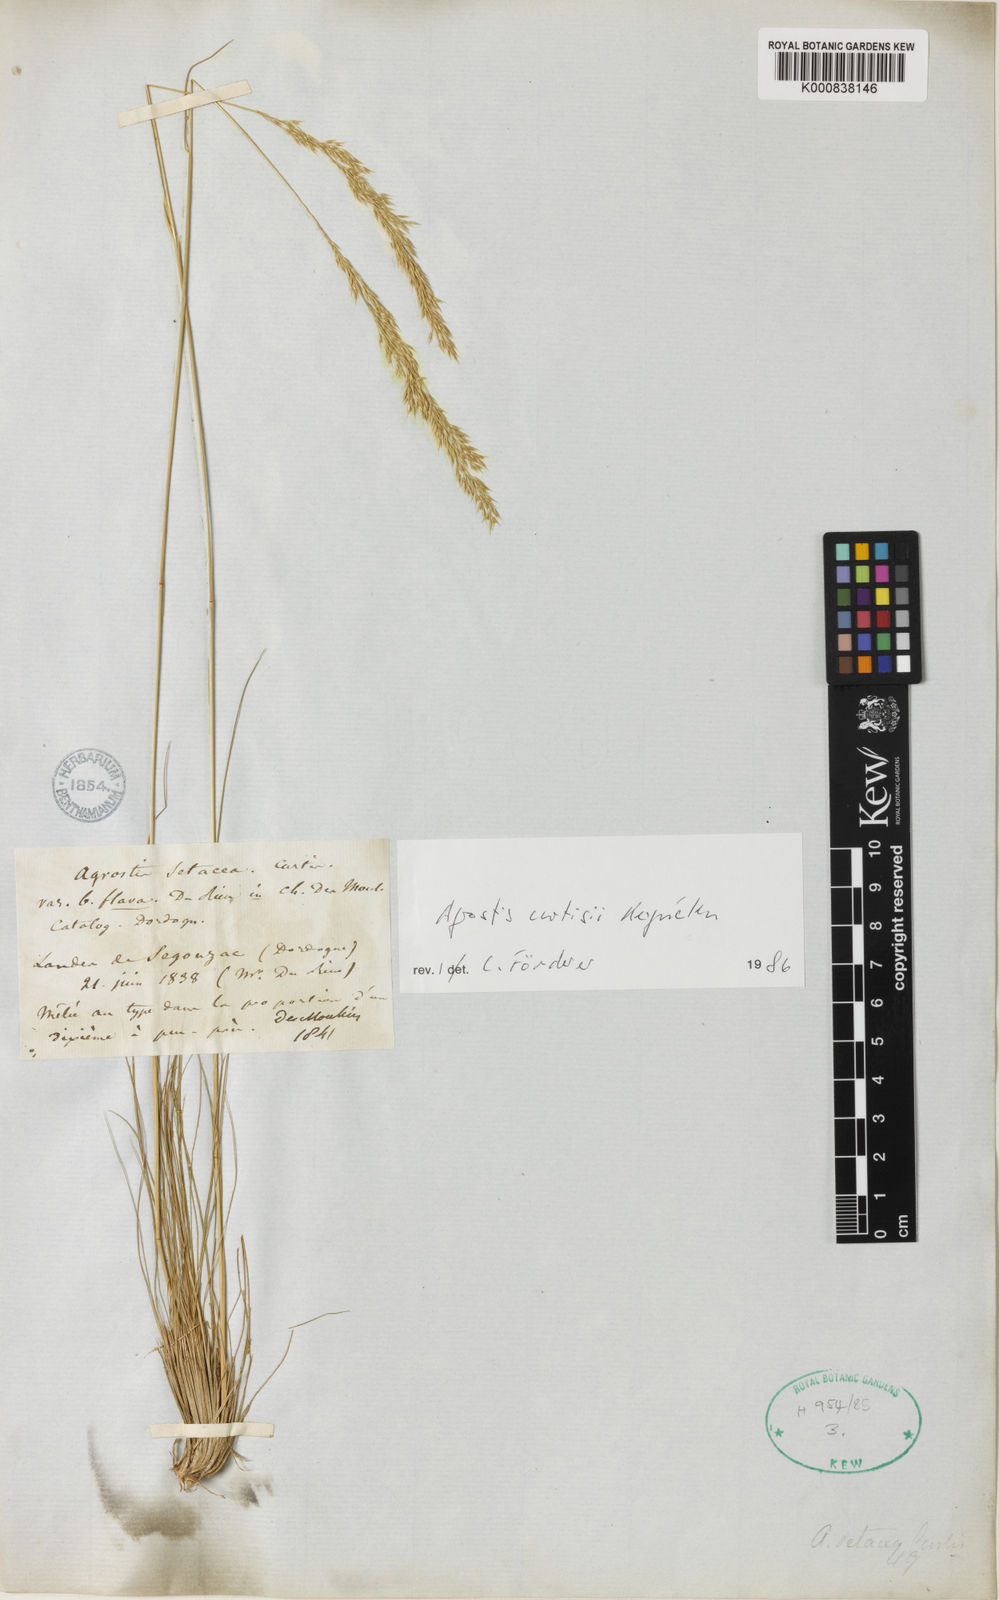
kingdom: Plantae
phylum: Tracheophyta
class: Liliopsida
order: Poales
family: Poaceae
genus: Agrostis
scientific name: Agrostis
